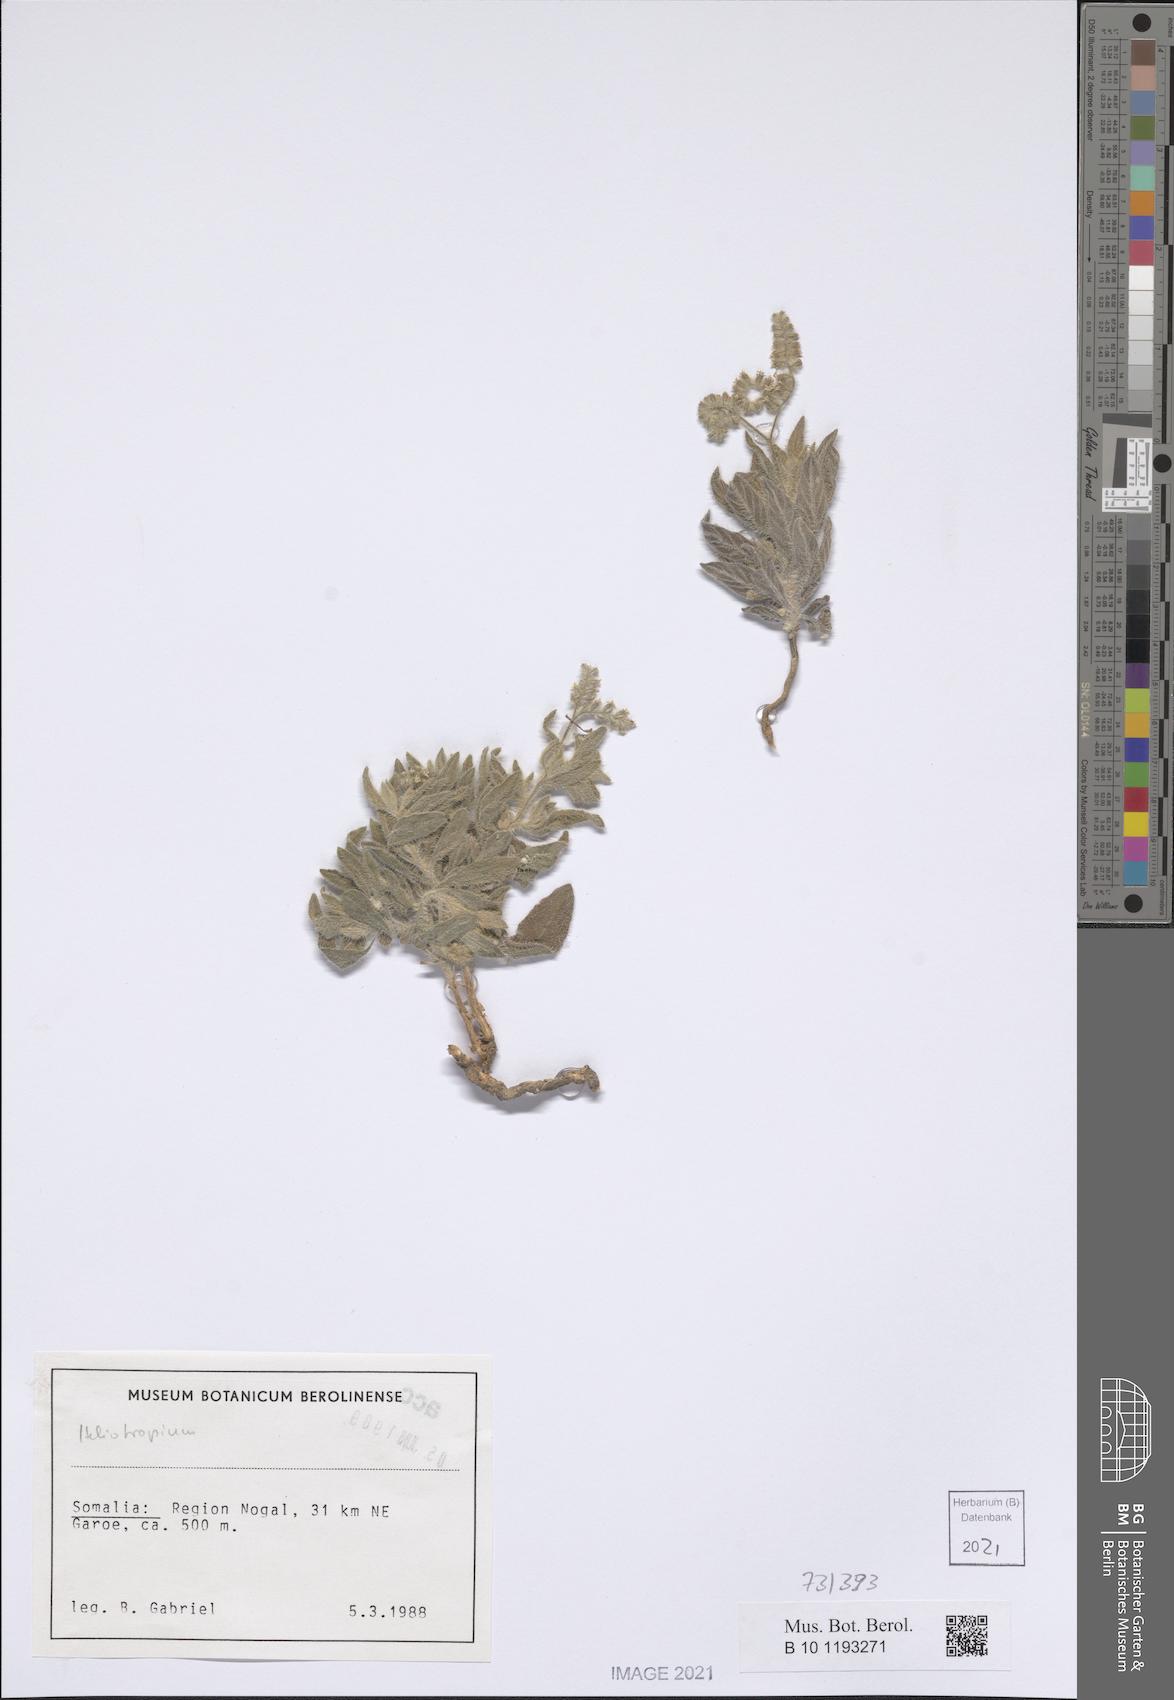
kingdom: Plantae
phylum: Tracheophyta
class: Magnoliopsida
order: Boraginales
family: Heliotropiaceae
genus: Heliotropium
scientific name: Heliotropium ophioglossum
